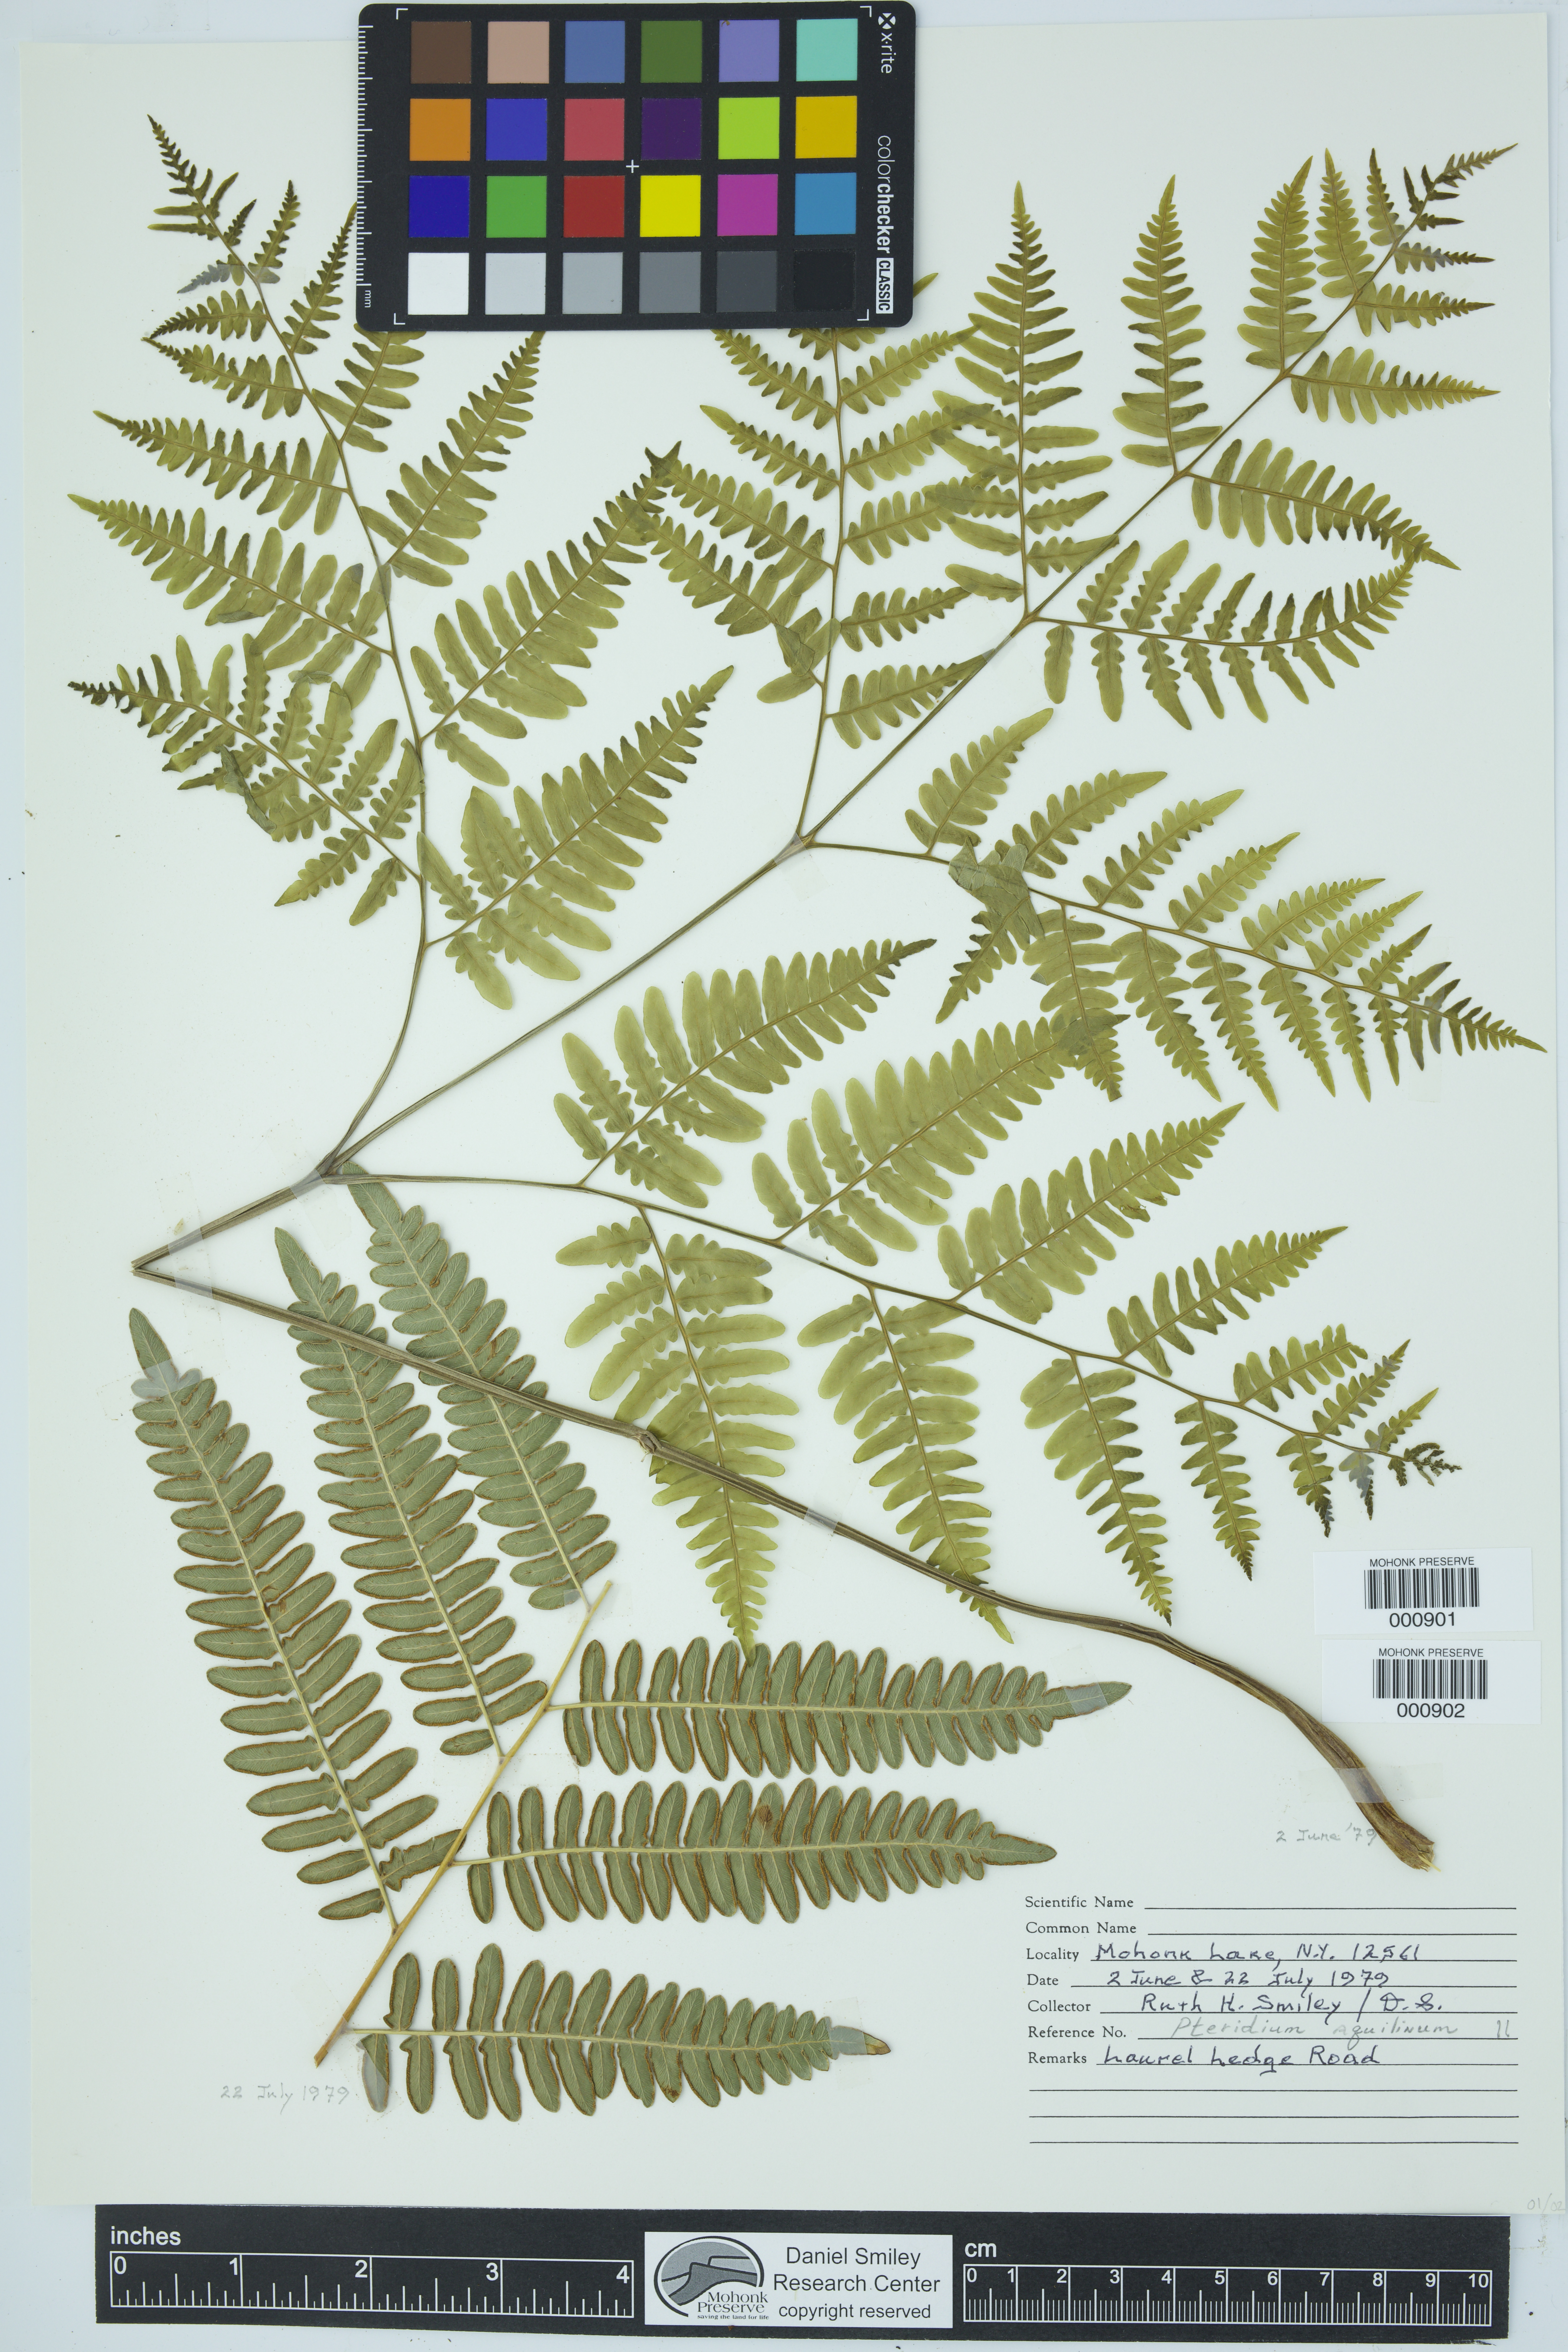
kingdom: Plantae
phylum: Tracheophyta
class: Polypodiopsida
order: Polypodiales
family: Dennstaedtiaceae
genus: Pteridium
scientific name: Pteridium aquilinum
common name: Bracken
